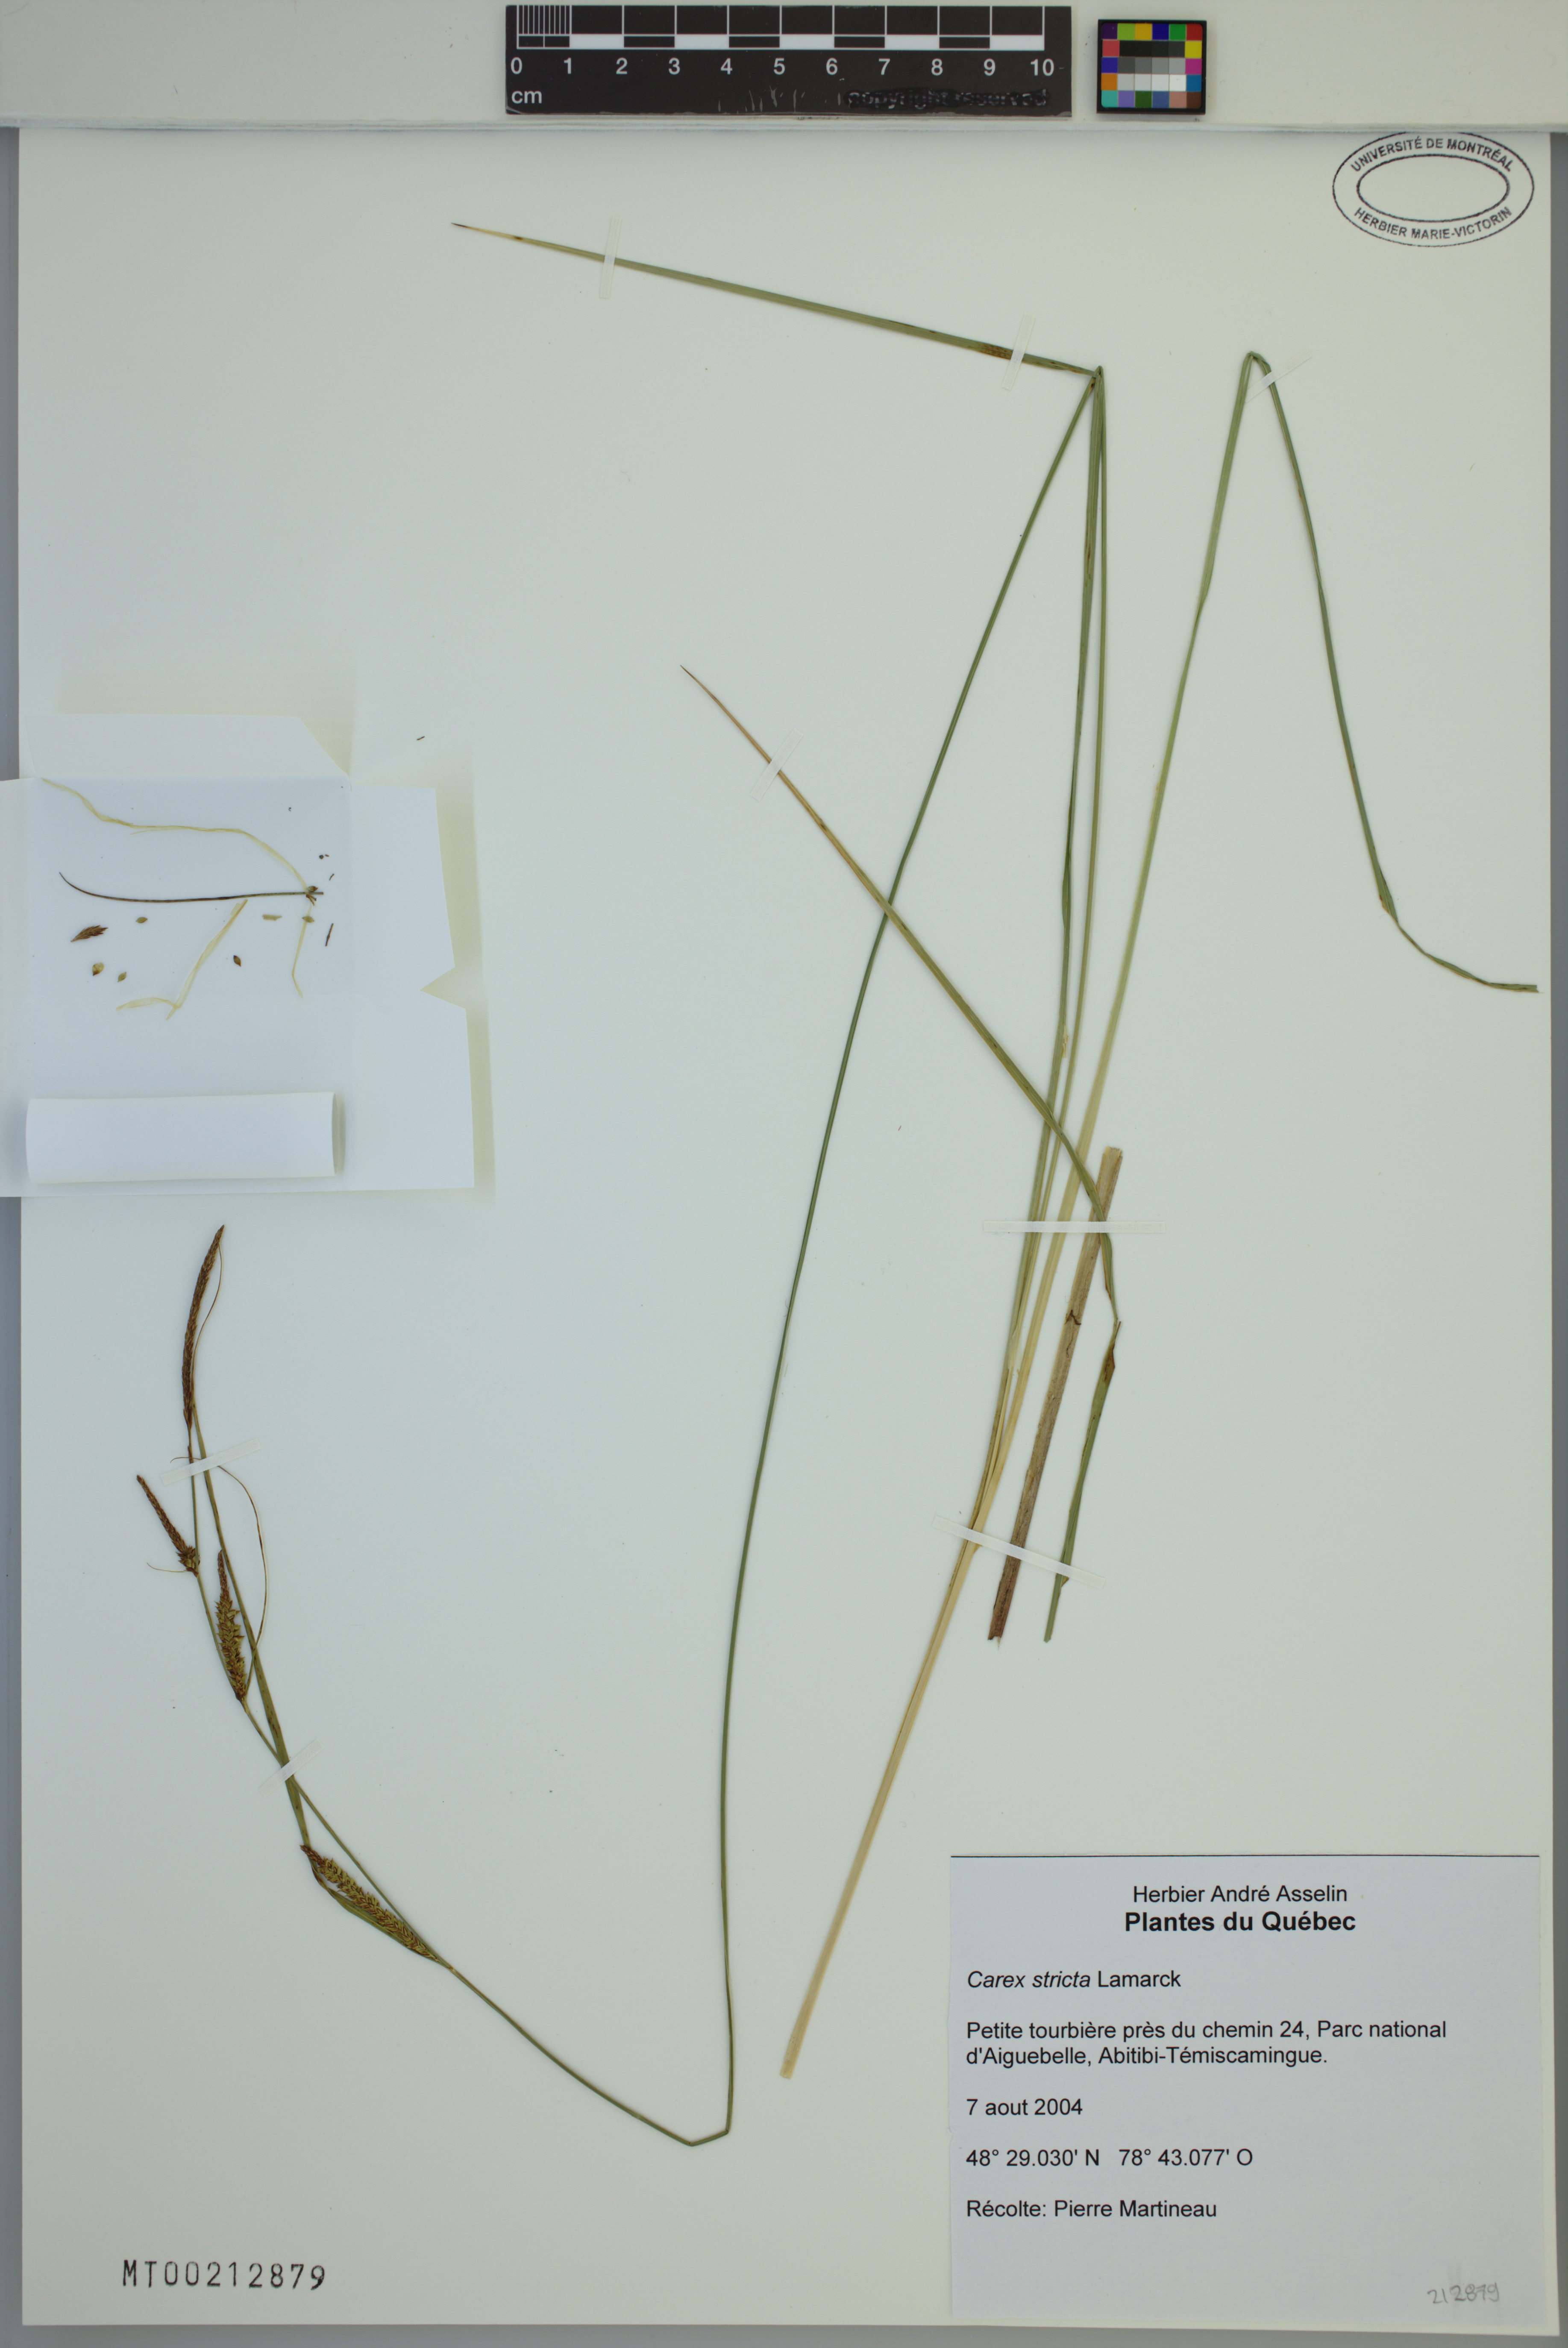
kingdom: Plantae
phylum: Tracheophyta
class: Liliopsida
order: Poales
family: Cyperaceae
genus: Carex
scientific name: Carex stricta
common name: Hummock sedge
